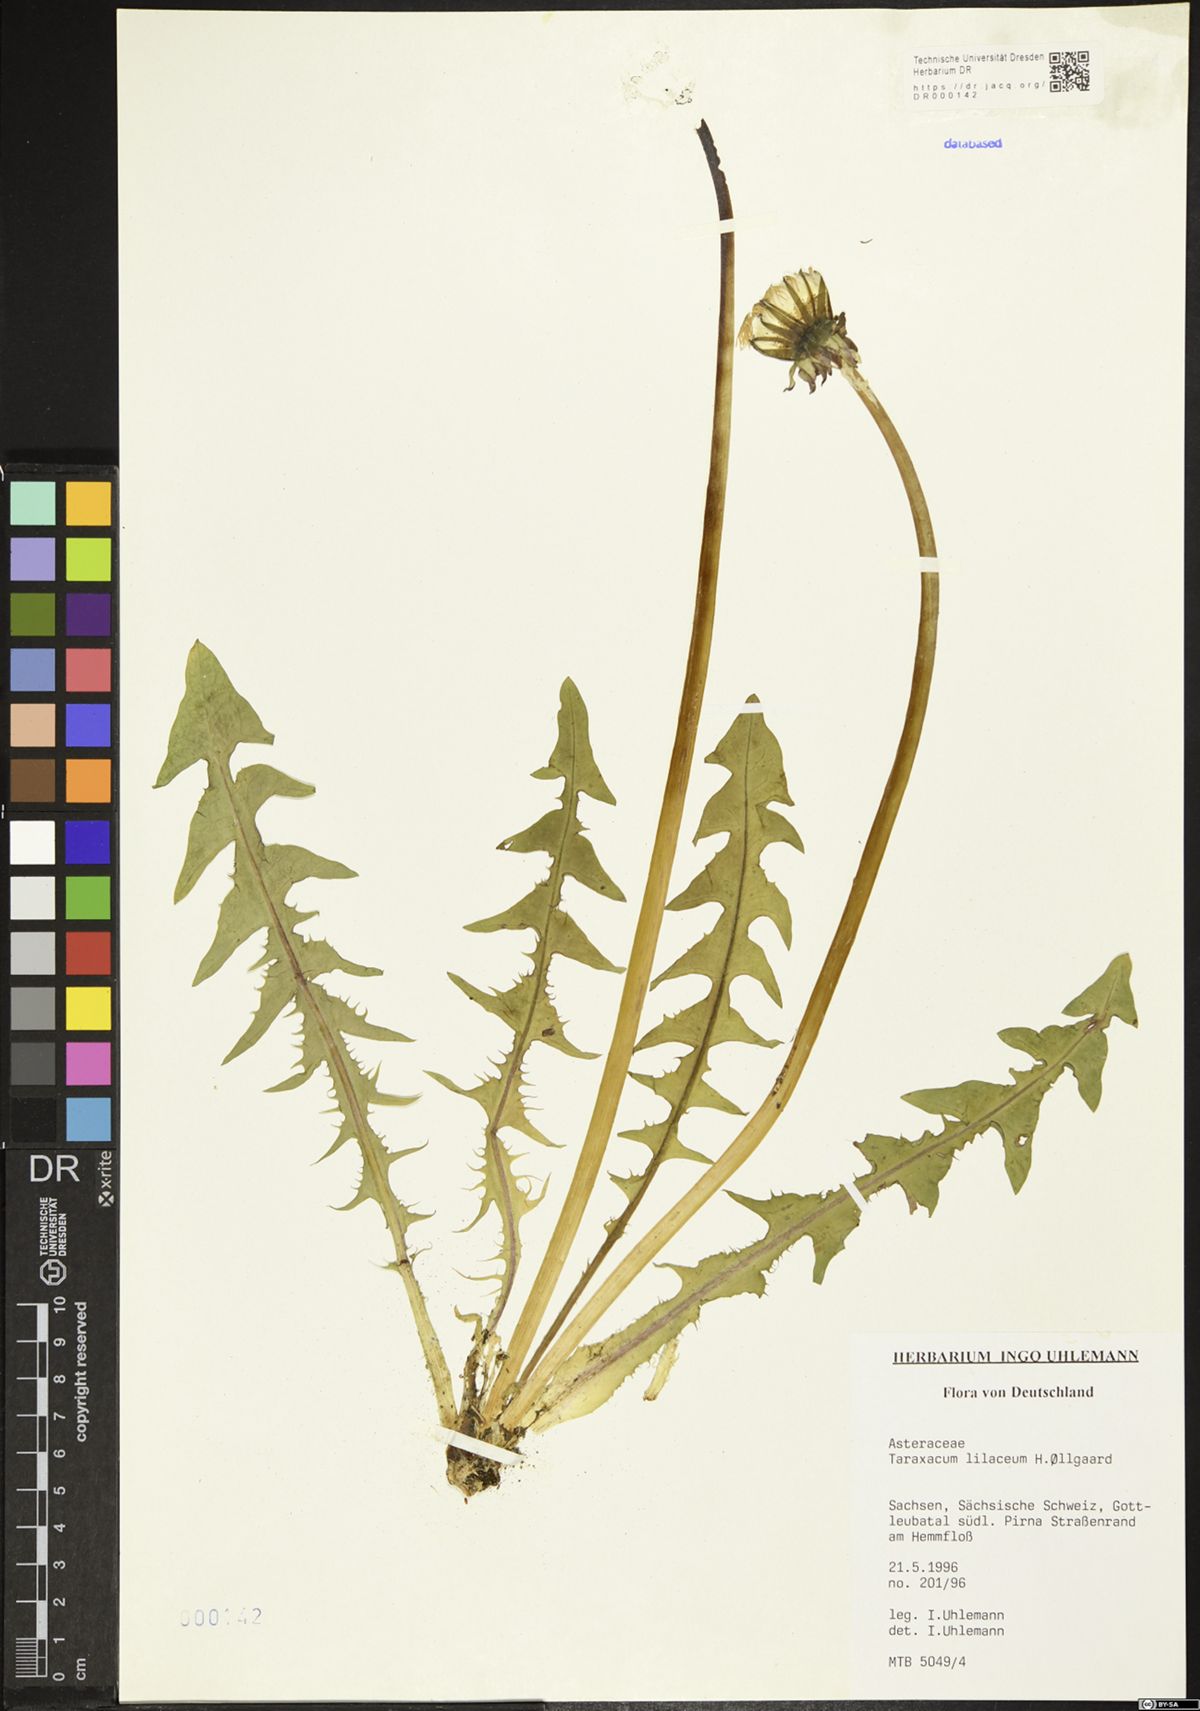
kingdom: Plantae
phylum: Tracheophyta
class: Magnoliopsida
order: Asterales
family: Asteraceae
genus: Taraxacum
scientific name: Taraxacum floccosum
